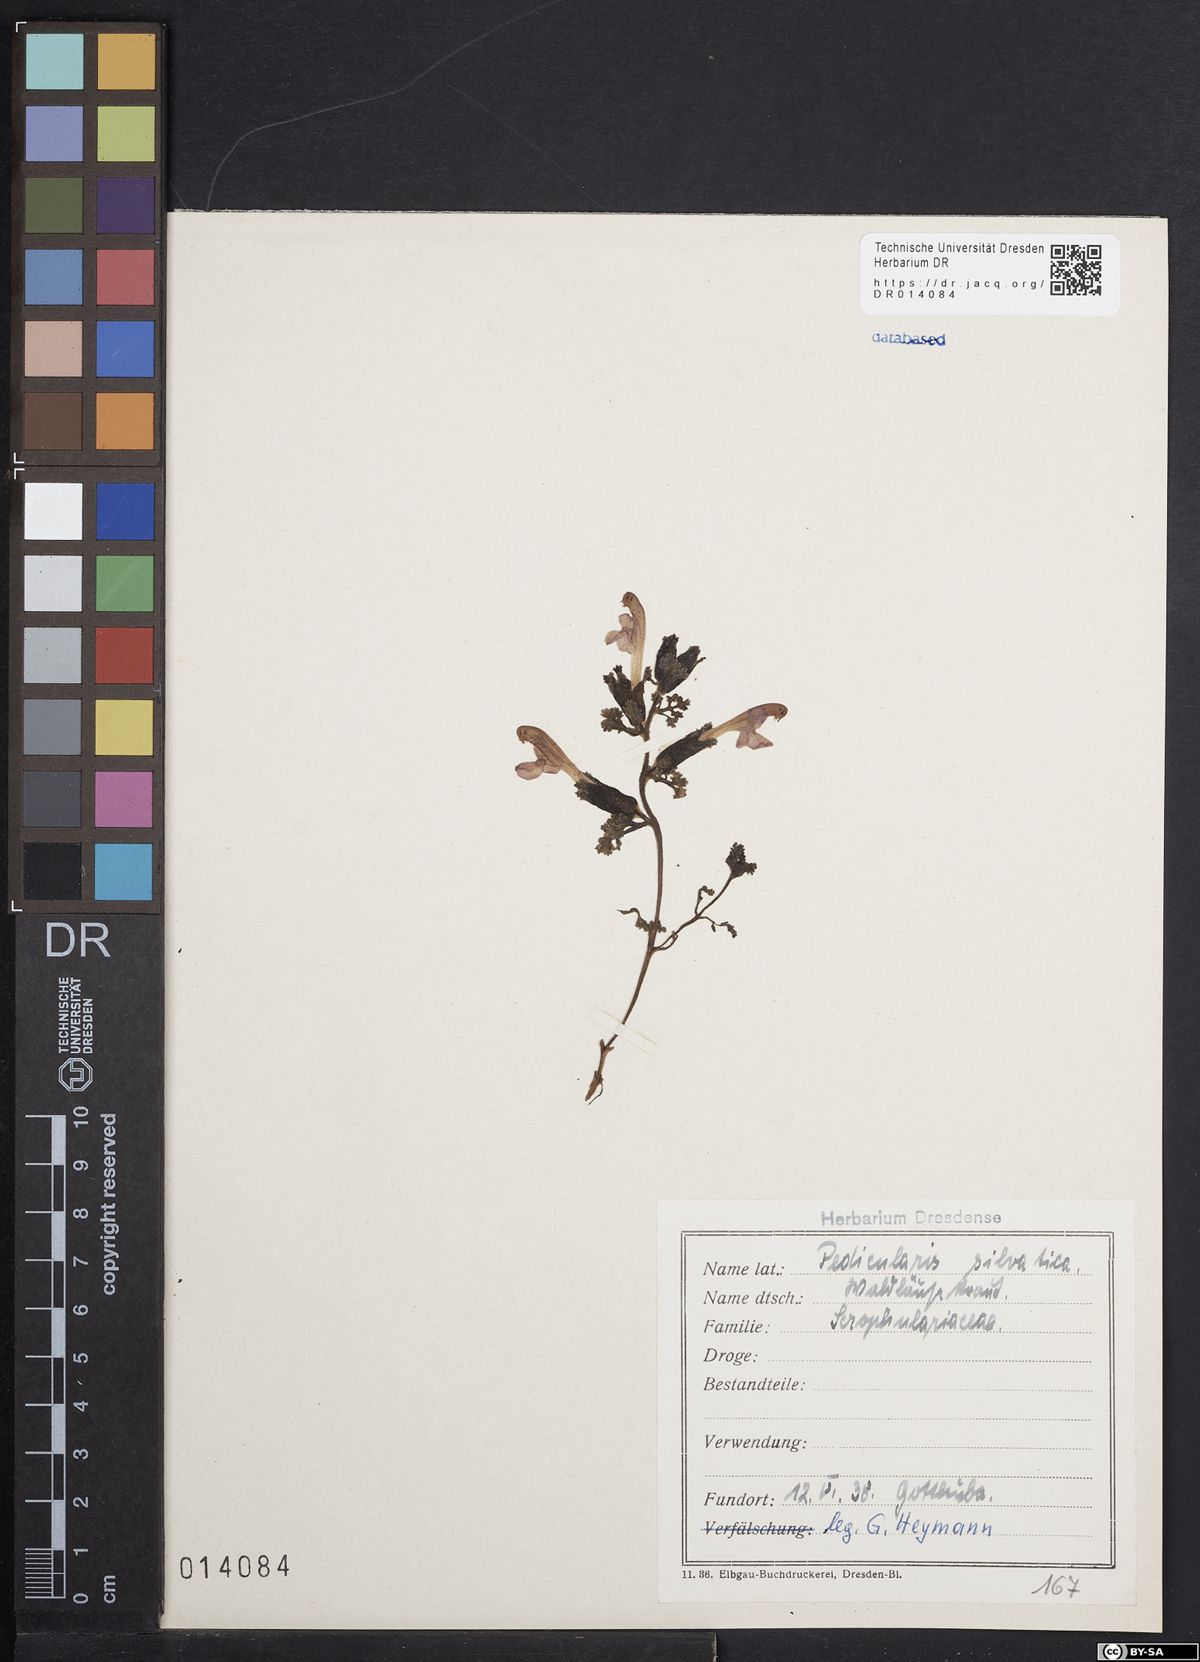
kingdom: Plantae
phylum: Tracheophyta
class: Magnoliopsida
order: Lamiales
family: Orobanchaceae
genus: Pedicularis
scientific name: Pedicularis sylvatica
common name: Lousewort
